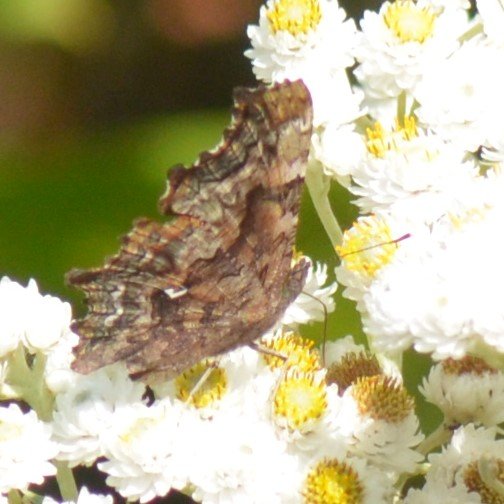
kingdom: Animalia
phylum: Arthropoda
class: Insecta
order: Lepidoptera
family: Nymphalidae
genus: Polygonia
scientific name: Polygonia faunus
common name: Green Comma
